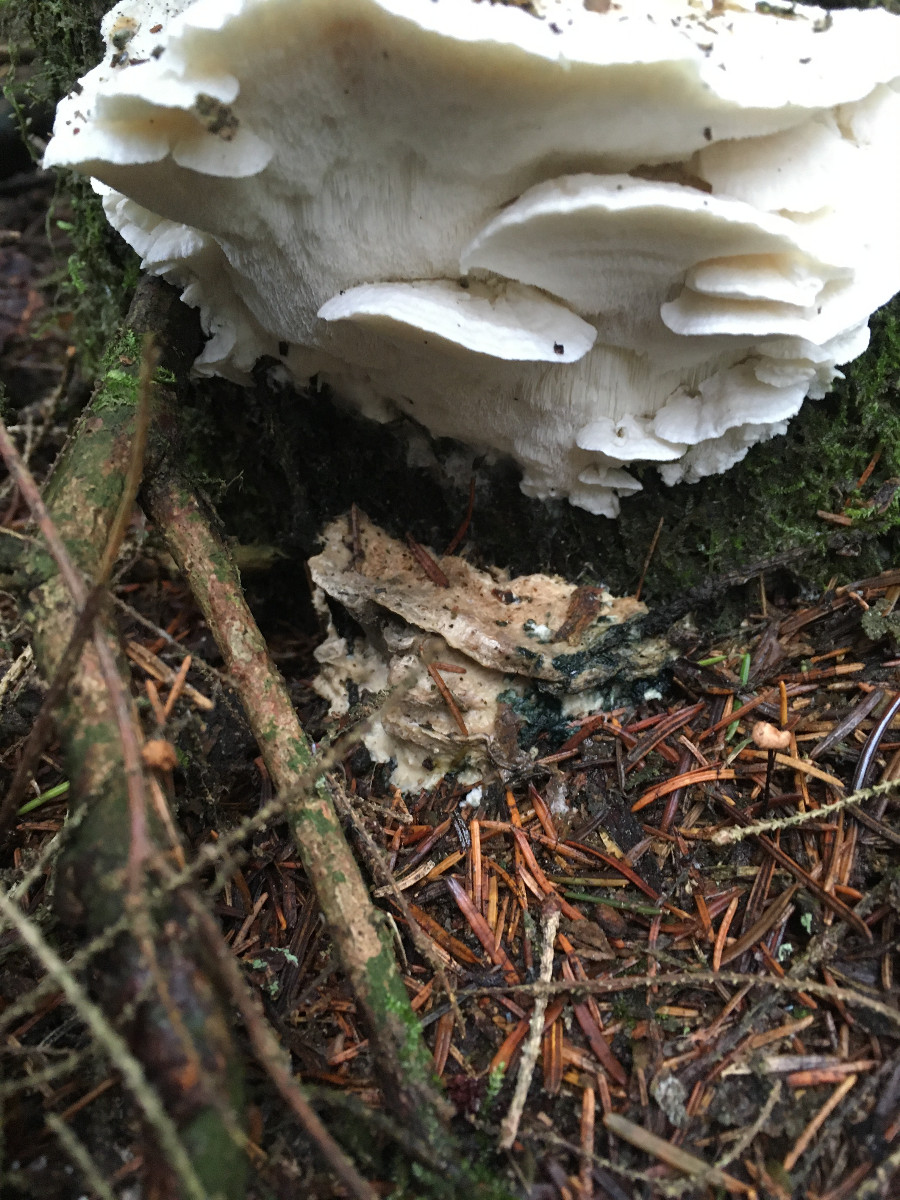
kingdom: Fungi
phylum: Basidiomycota
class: Agaricomycetes
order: Polyporales
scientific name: Polyporales
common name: poresvampordenen
